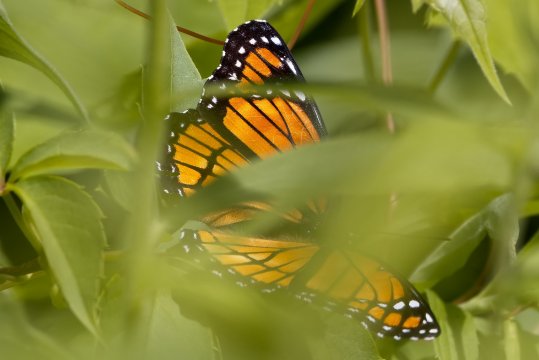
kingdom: Animalia
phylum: Arthropoda
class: Insecta
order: Lepidoptera
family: Nymphalidae
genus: Limenitis
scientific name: Limenitis archippus
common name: Viceroy
